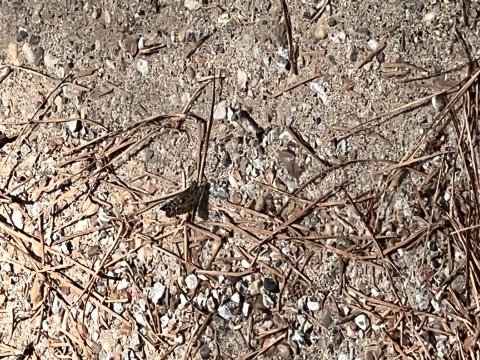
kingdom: Animalia
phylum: Arthropoda
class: Insecta
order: Lepidoptera
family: Hesperiidae
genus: Pyrgus
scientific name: Pyrgus oileus
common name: Tropical Checkered-Skipper
